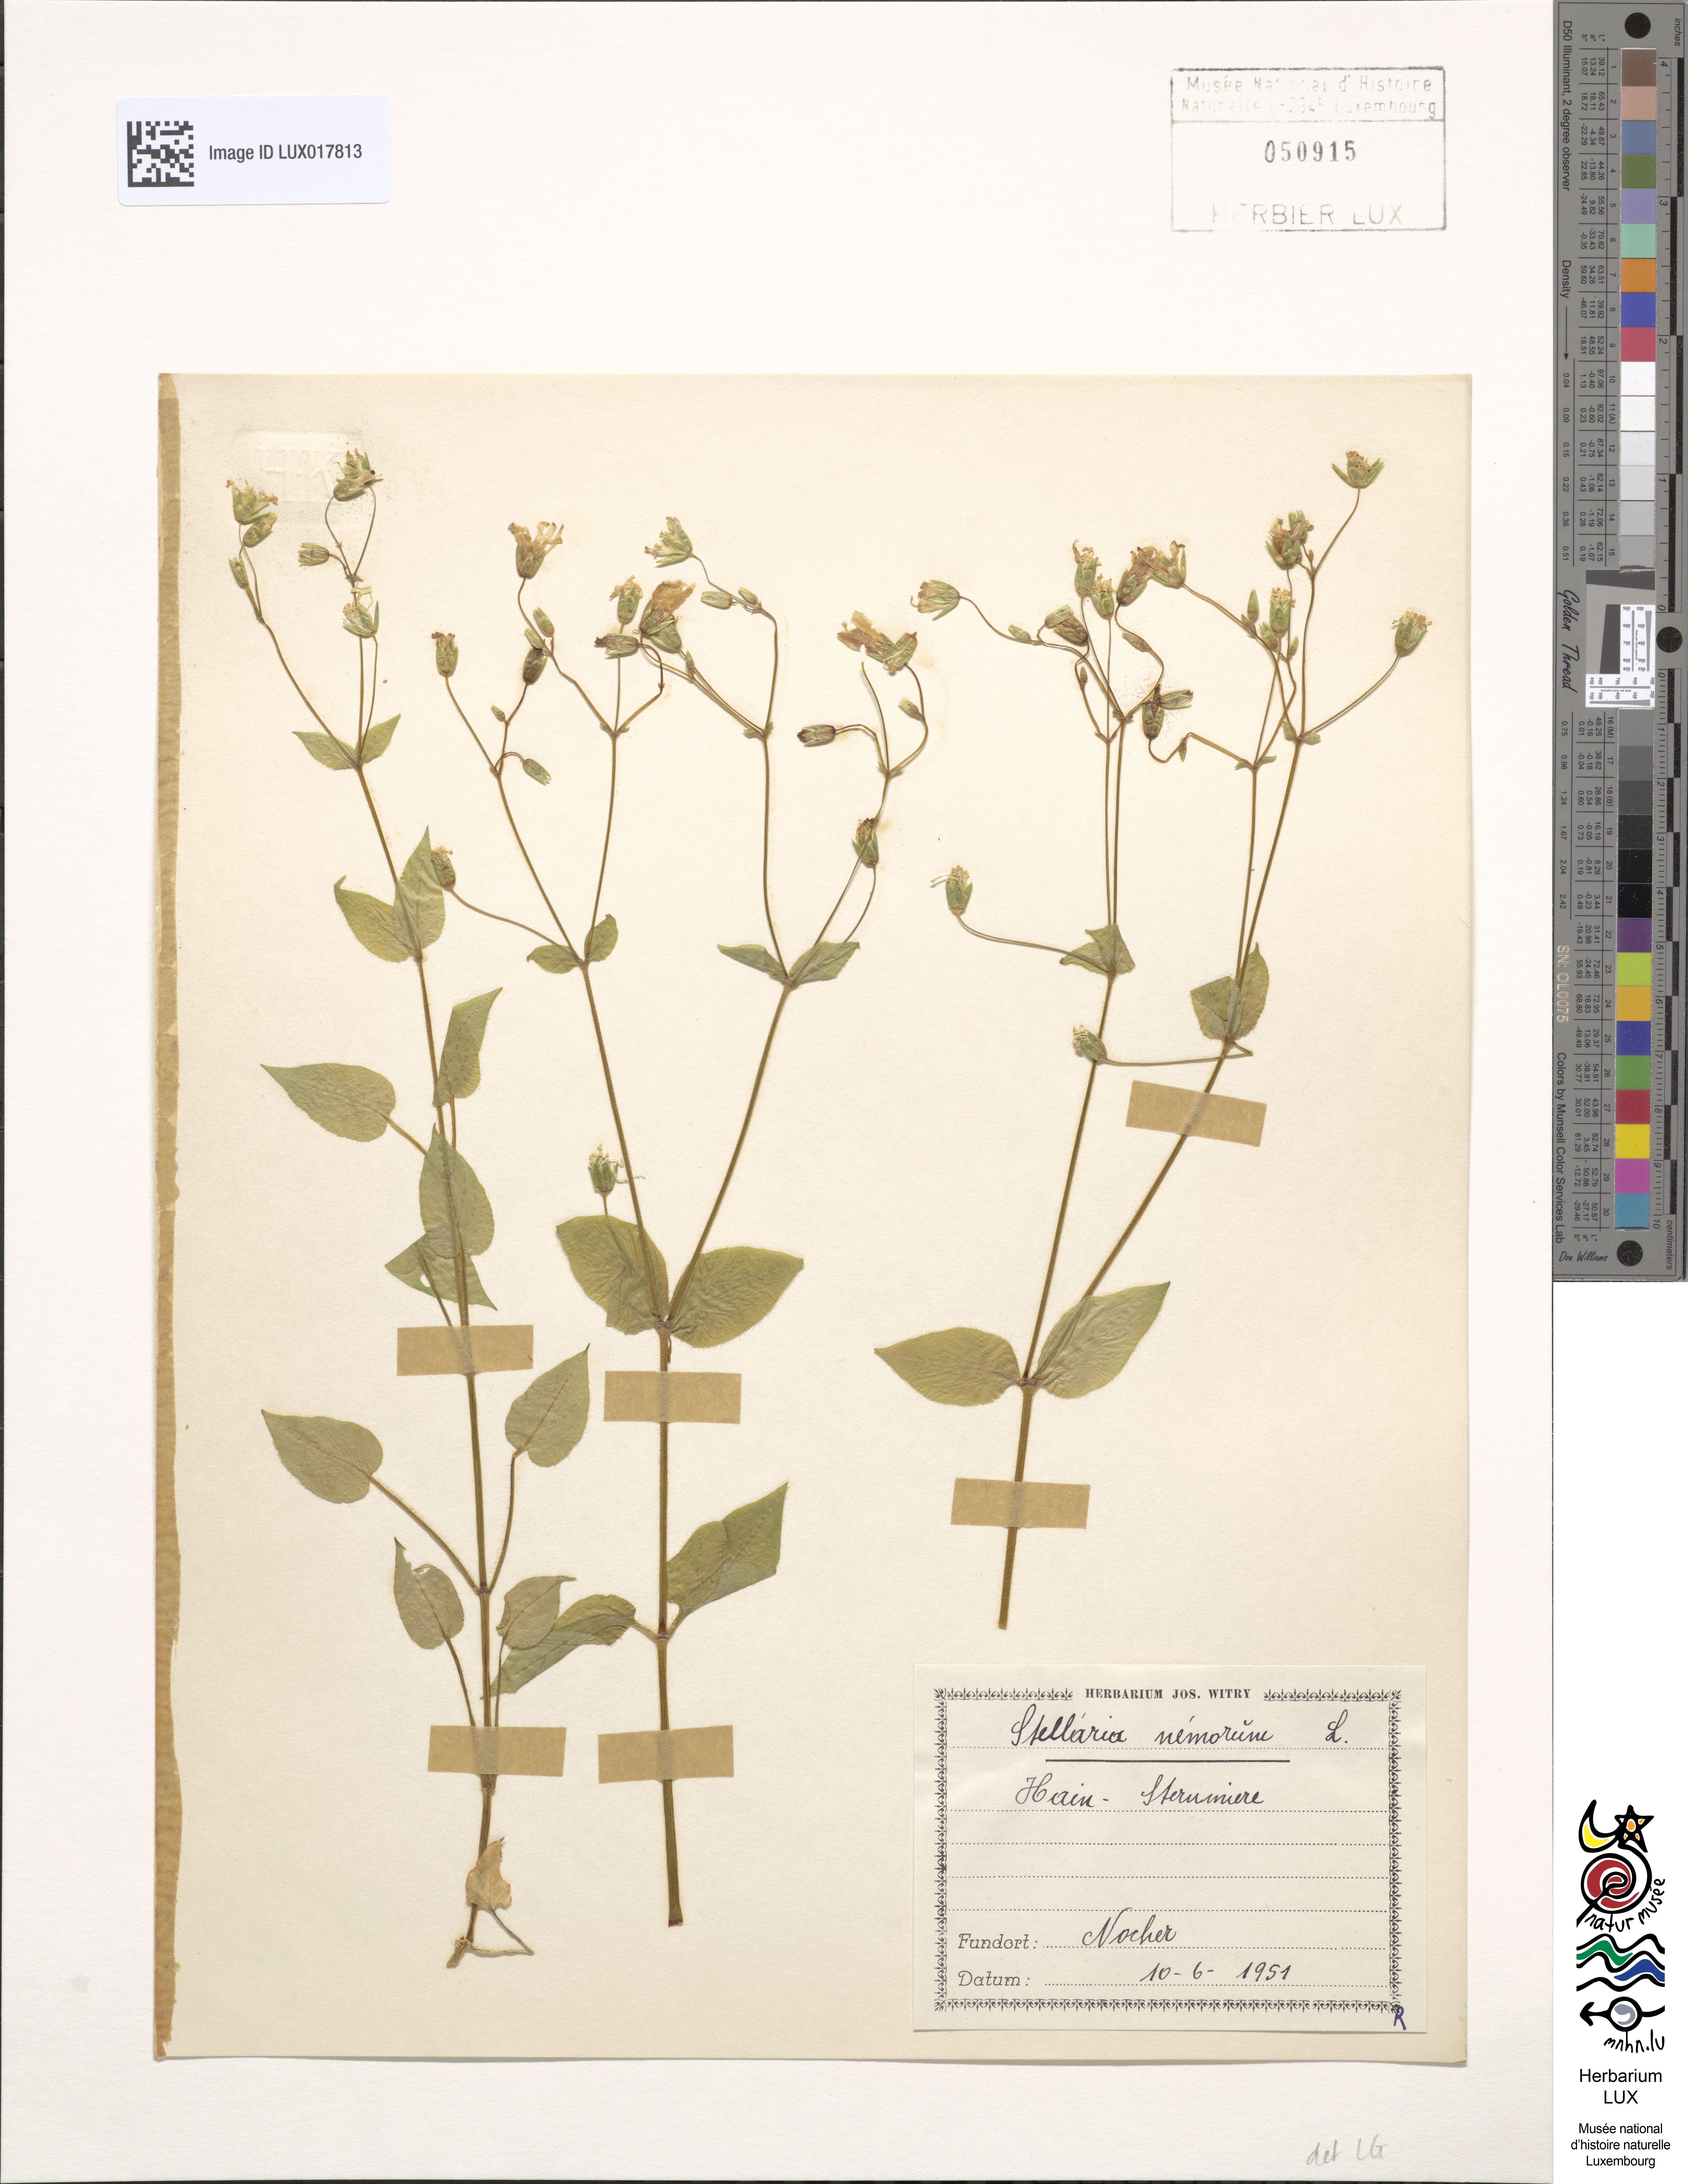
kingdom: Plantae
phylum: Tracheophyta
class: Magnoliopsida
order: Caryophyllales
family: Caryophyllaceae
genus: Stellaria
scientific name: Stellaria nemorum
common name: Wood stitchwort
